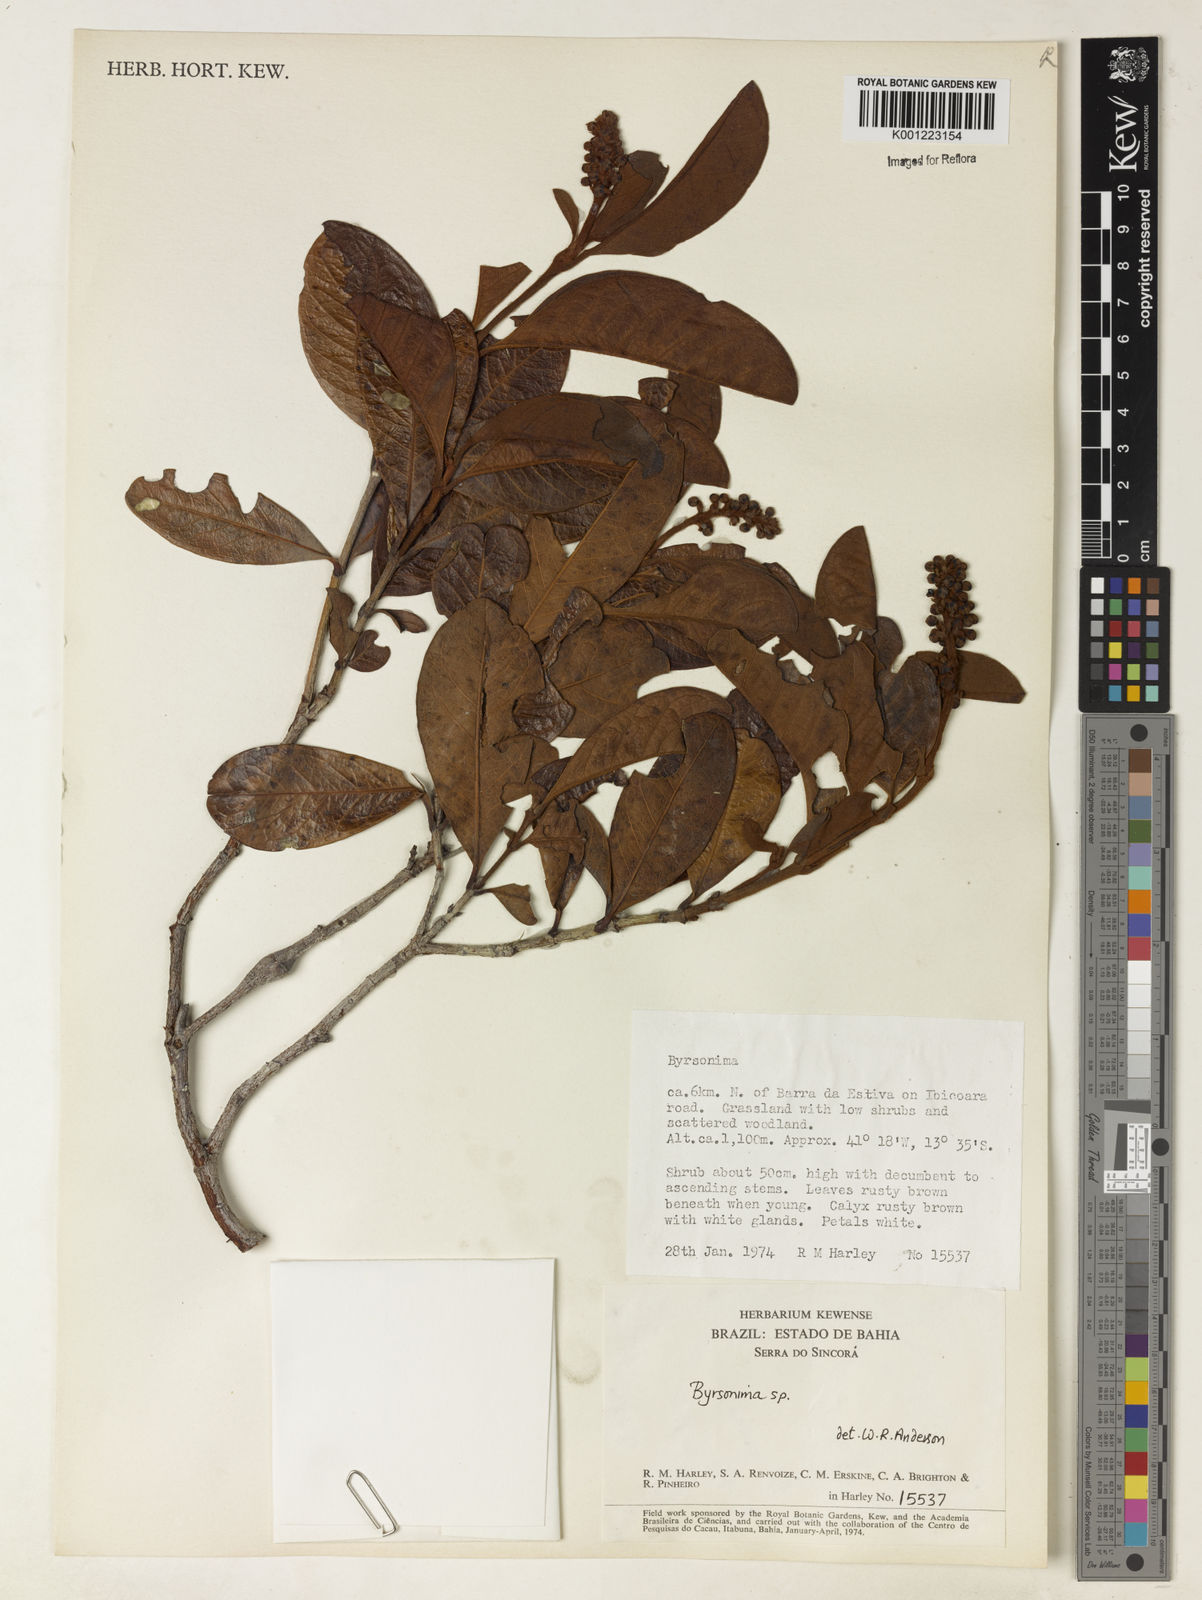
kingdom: Plantae
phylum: Tracheophyta
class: Magnoliopsida
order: Malpighiales
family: Malpighiaceae
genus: Byrsonima
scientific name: Byrsonima
